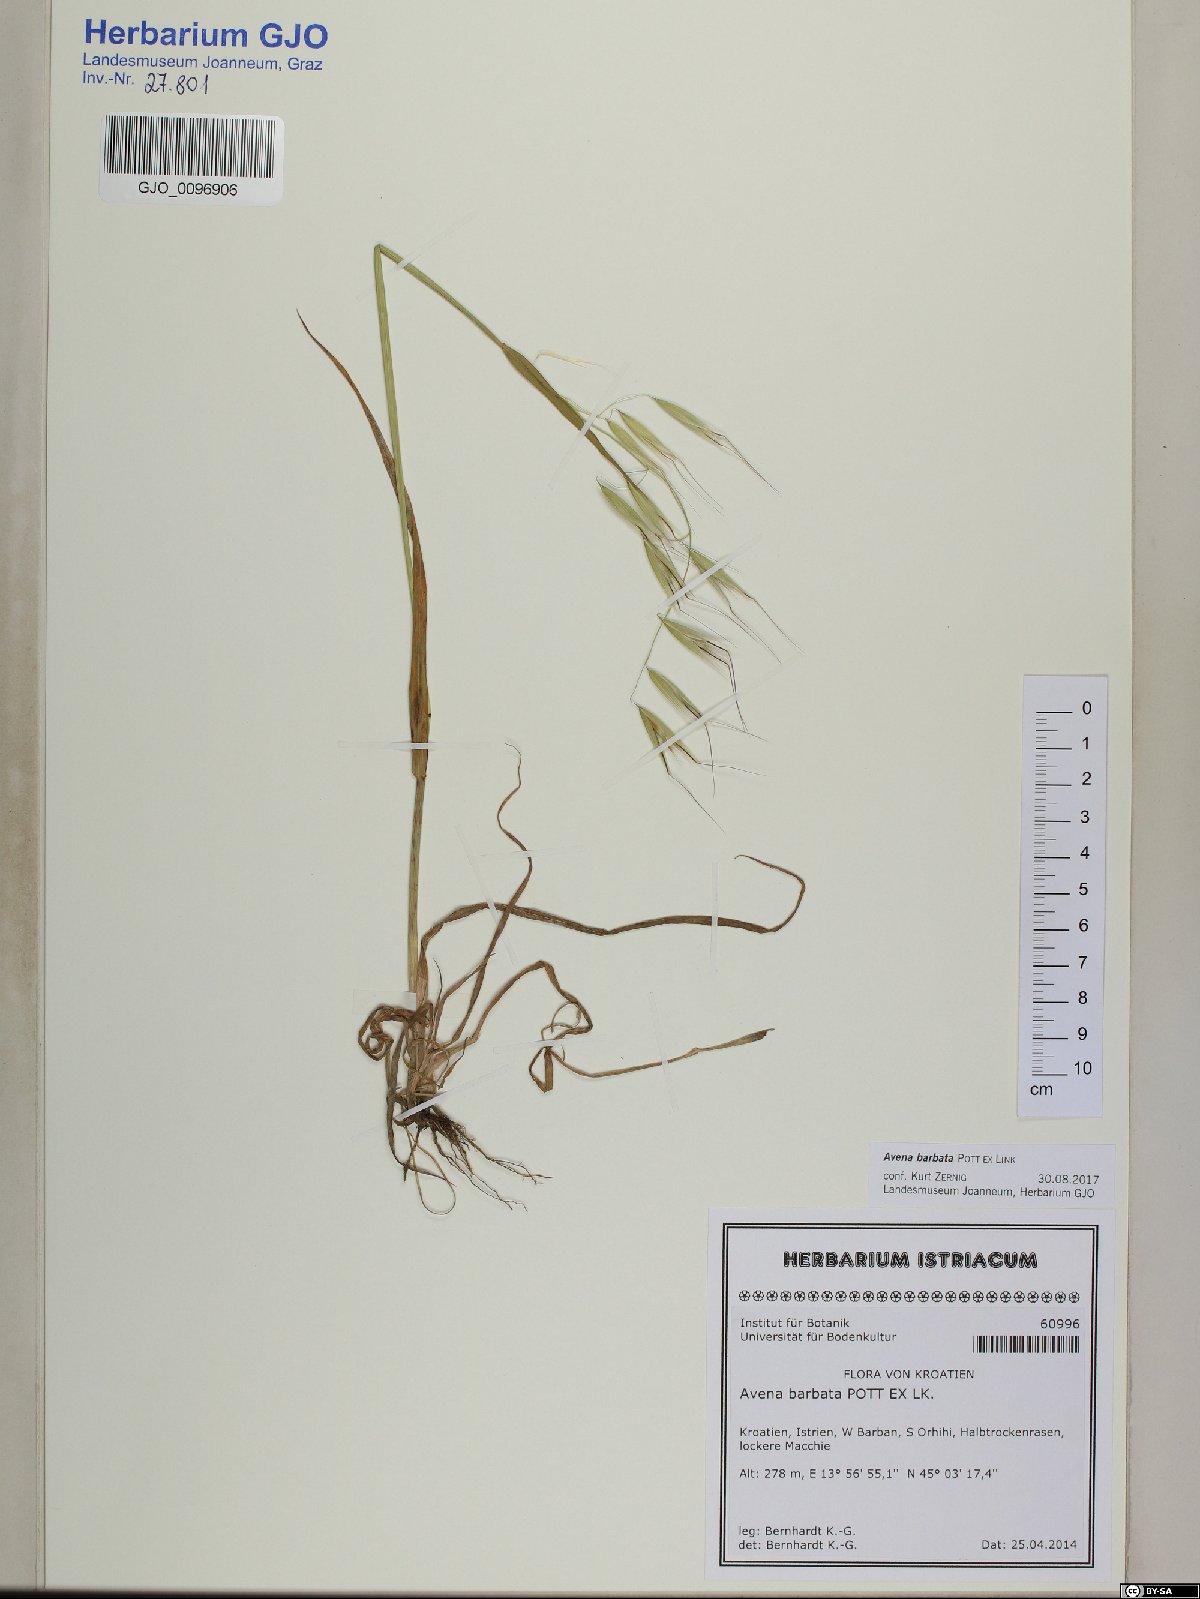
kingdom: Plantae
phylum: Tracheophyta
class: Liliopsida
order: Poales
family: Poaceae
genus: Avena
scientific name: Avena barbata
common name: Slender oat
